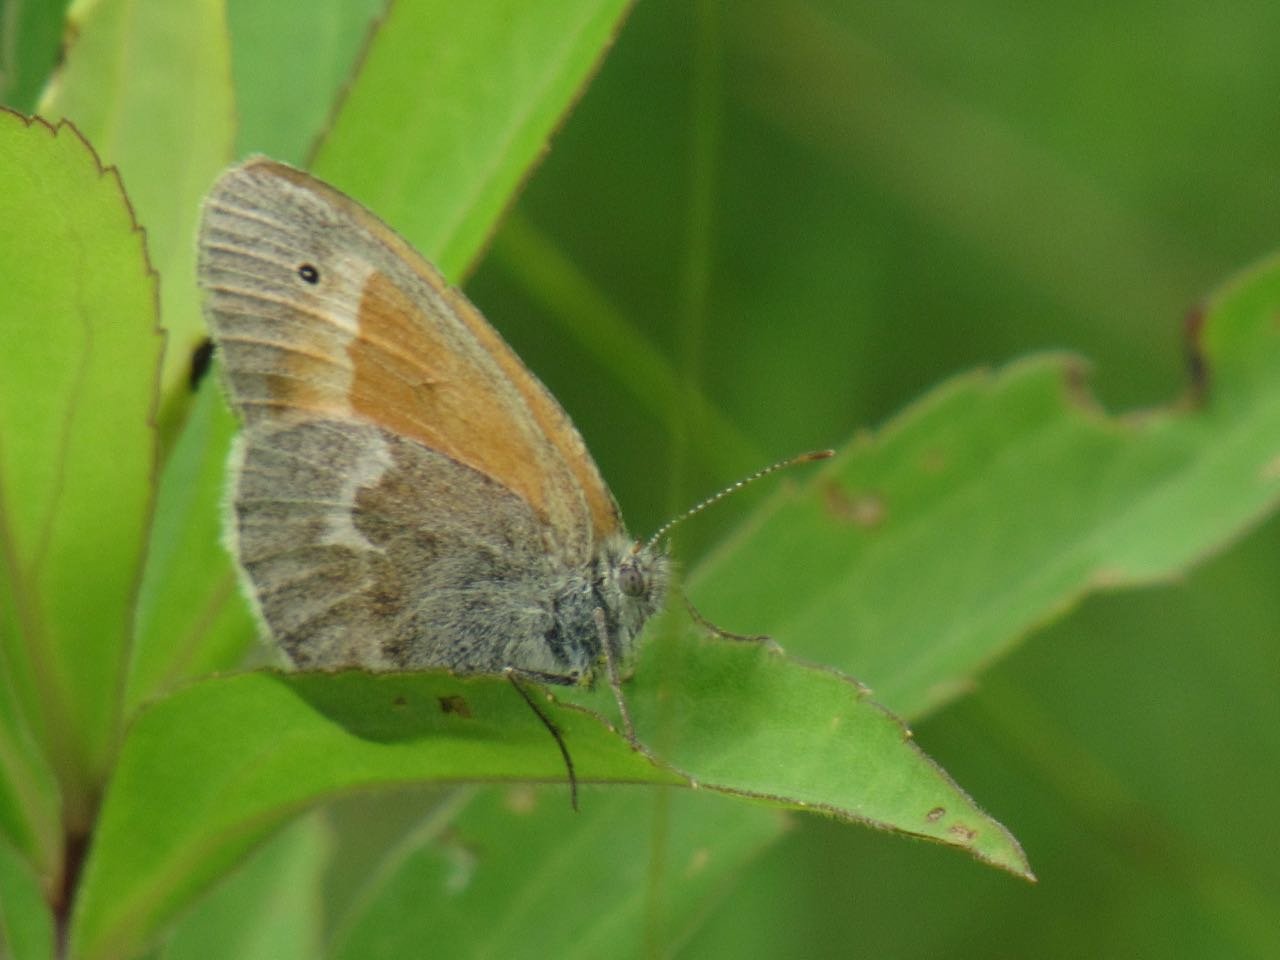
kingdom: Animalia
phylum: Arthropoda
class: Insecta
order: Lepidoptera
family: Nymphalidae
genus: Coenonympha
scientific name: Coenonympha tullia
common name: Large Heath
